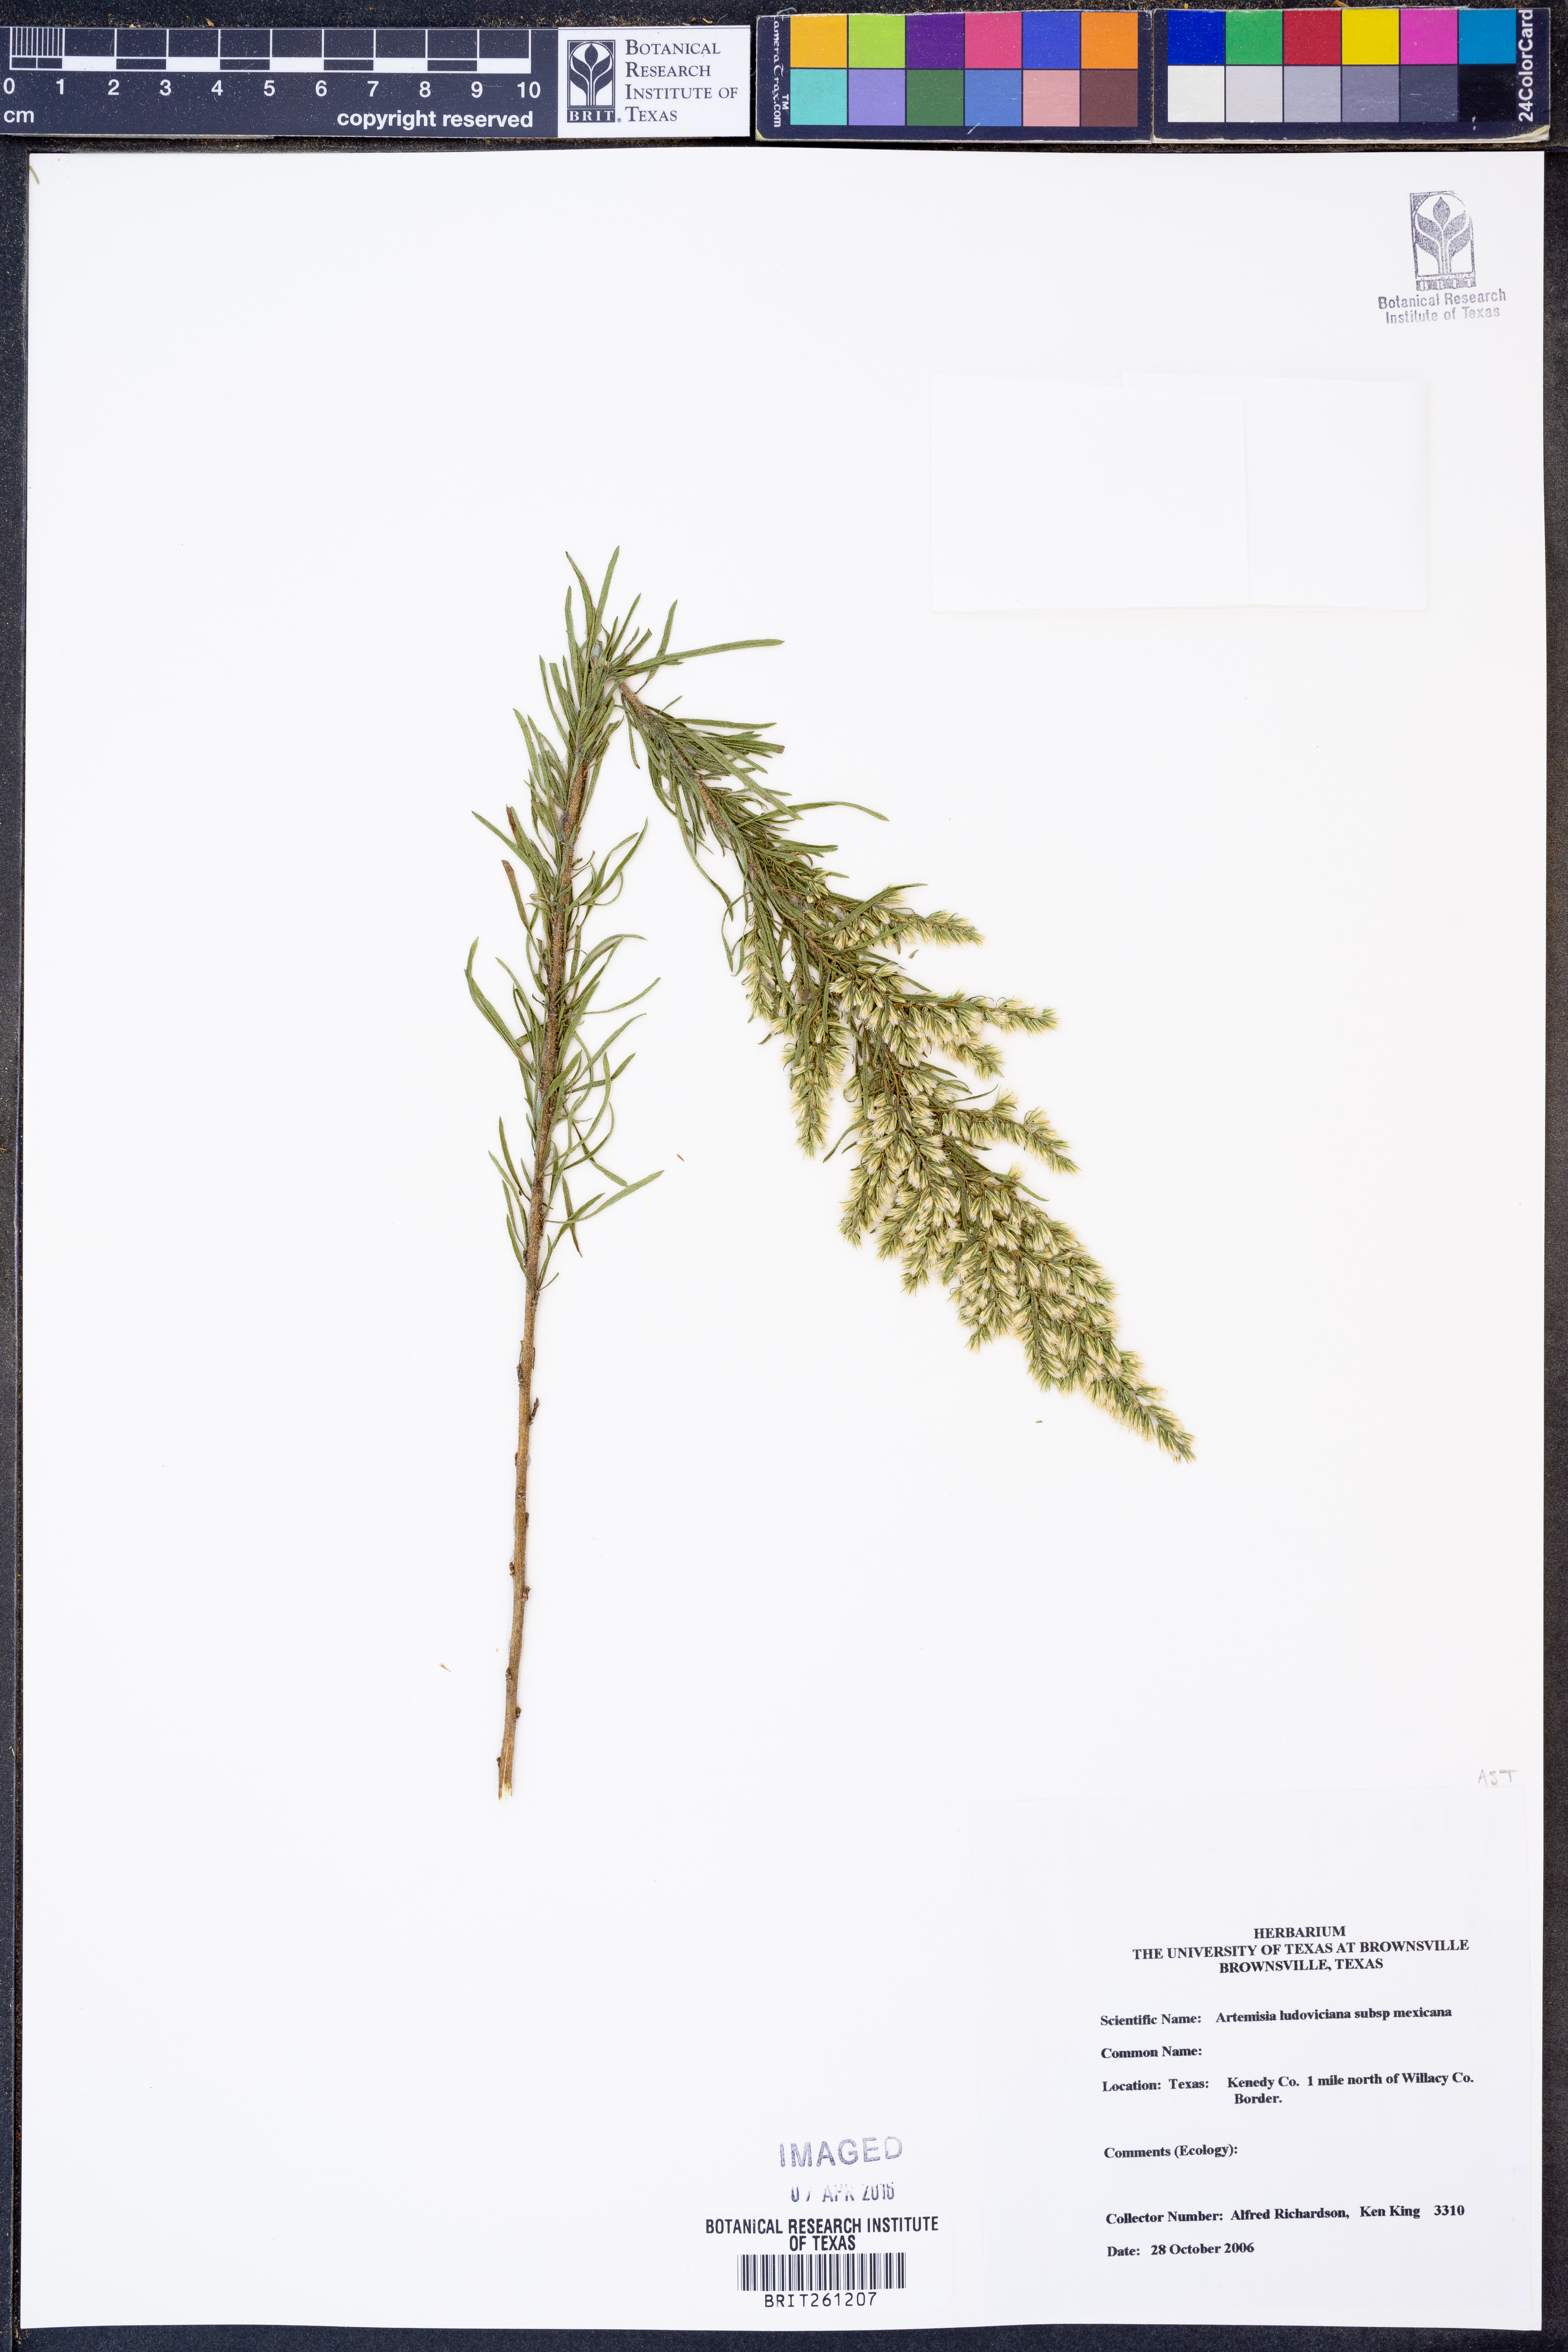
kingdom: Plantae
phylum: Tracheophyta
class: Magnoliopsida
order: Asterales
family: Asteraceae
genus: Artemisia
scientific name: Artemisia ludoviciana
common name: Western mugwort
